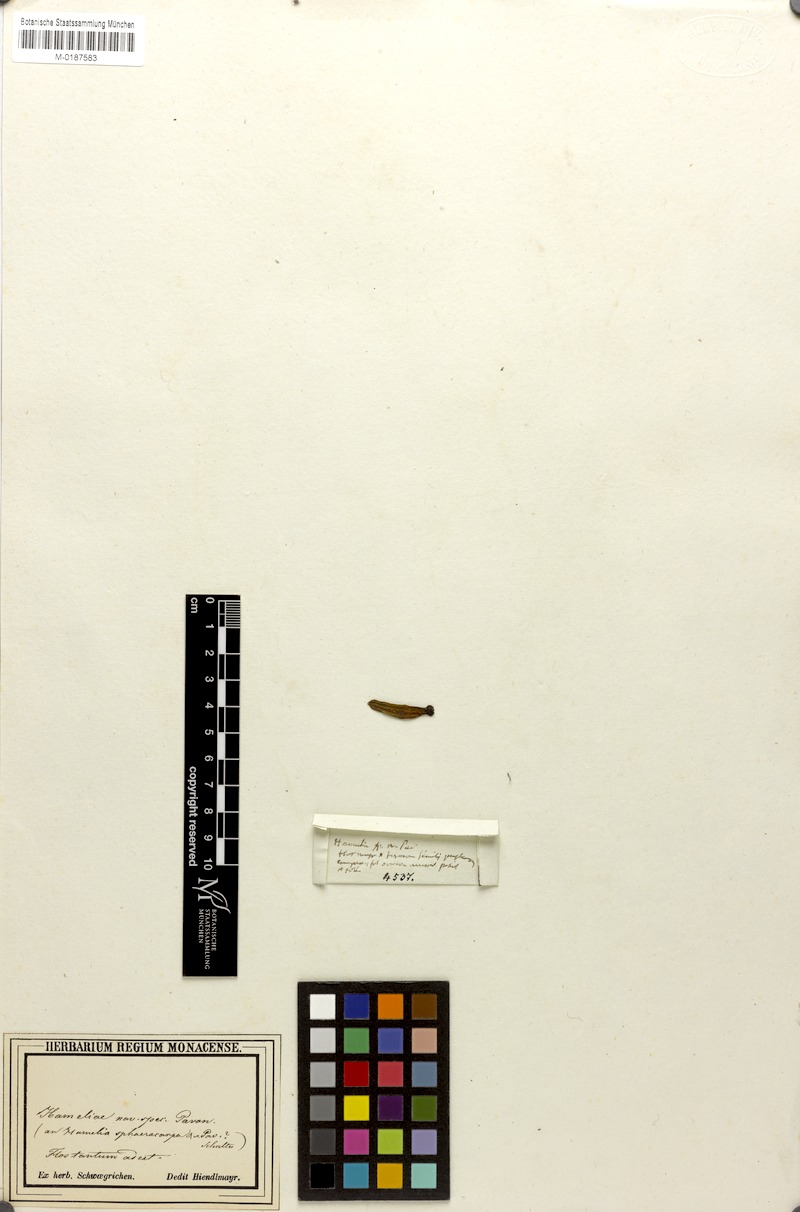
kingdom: Plantae
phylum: Tracheophyta
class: Magnoliopsida
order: Gentianales
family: Rubiaceae
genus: Hamelia
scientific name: Hamelia
